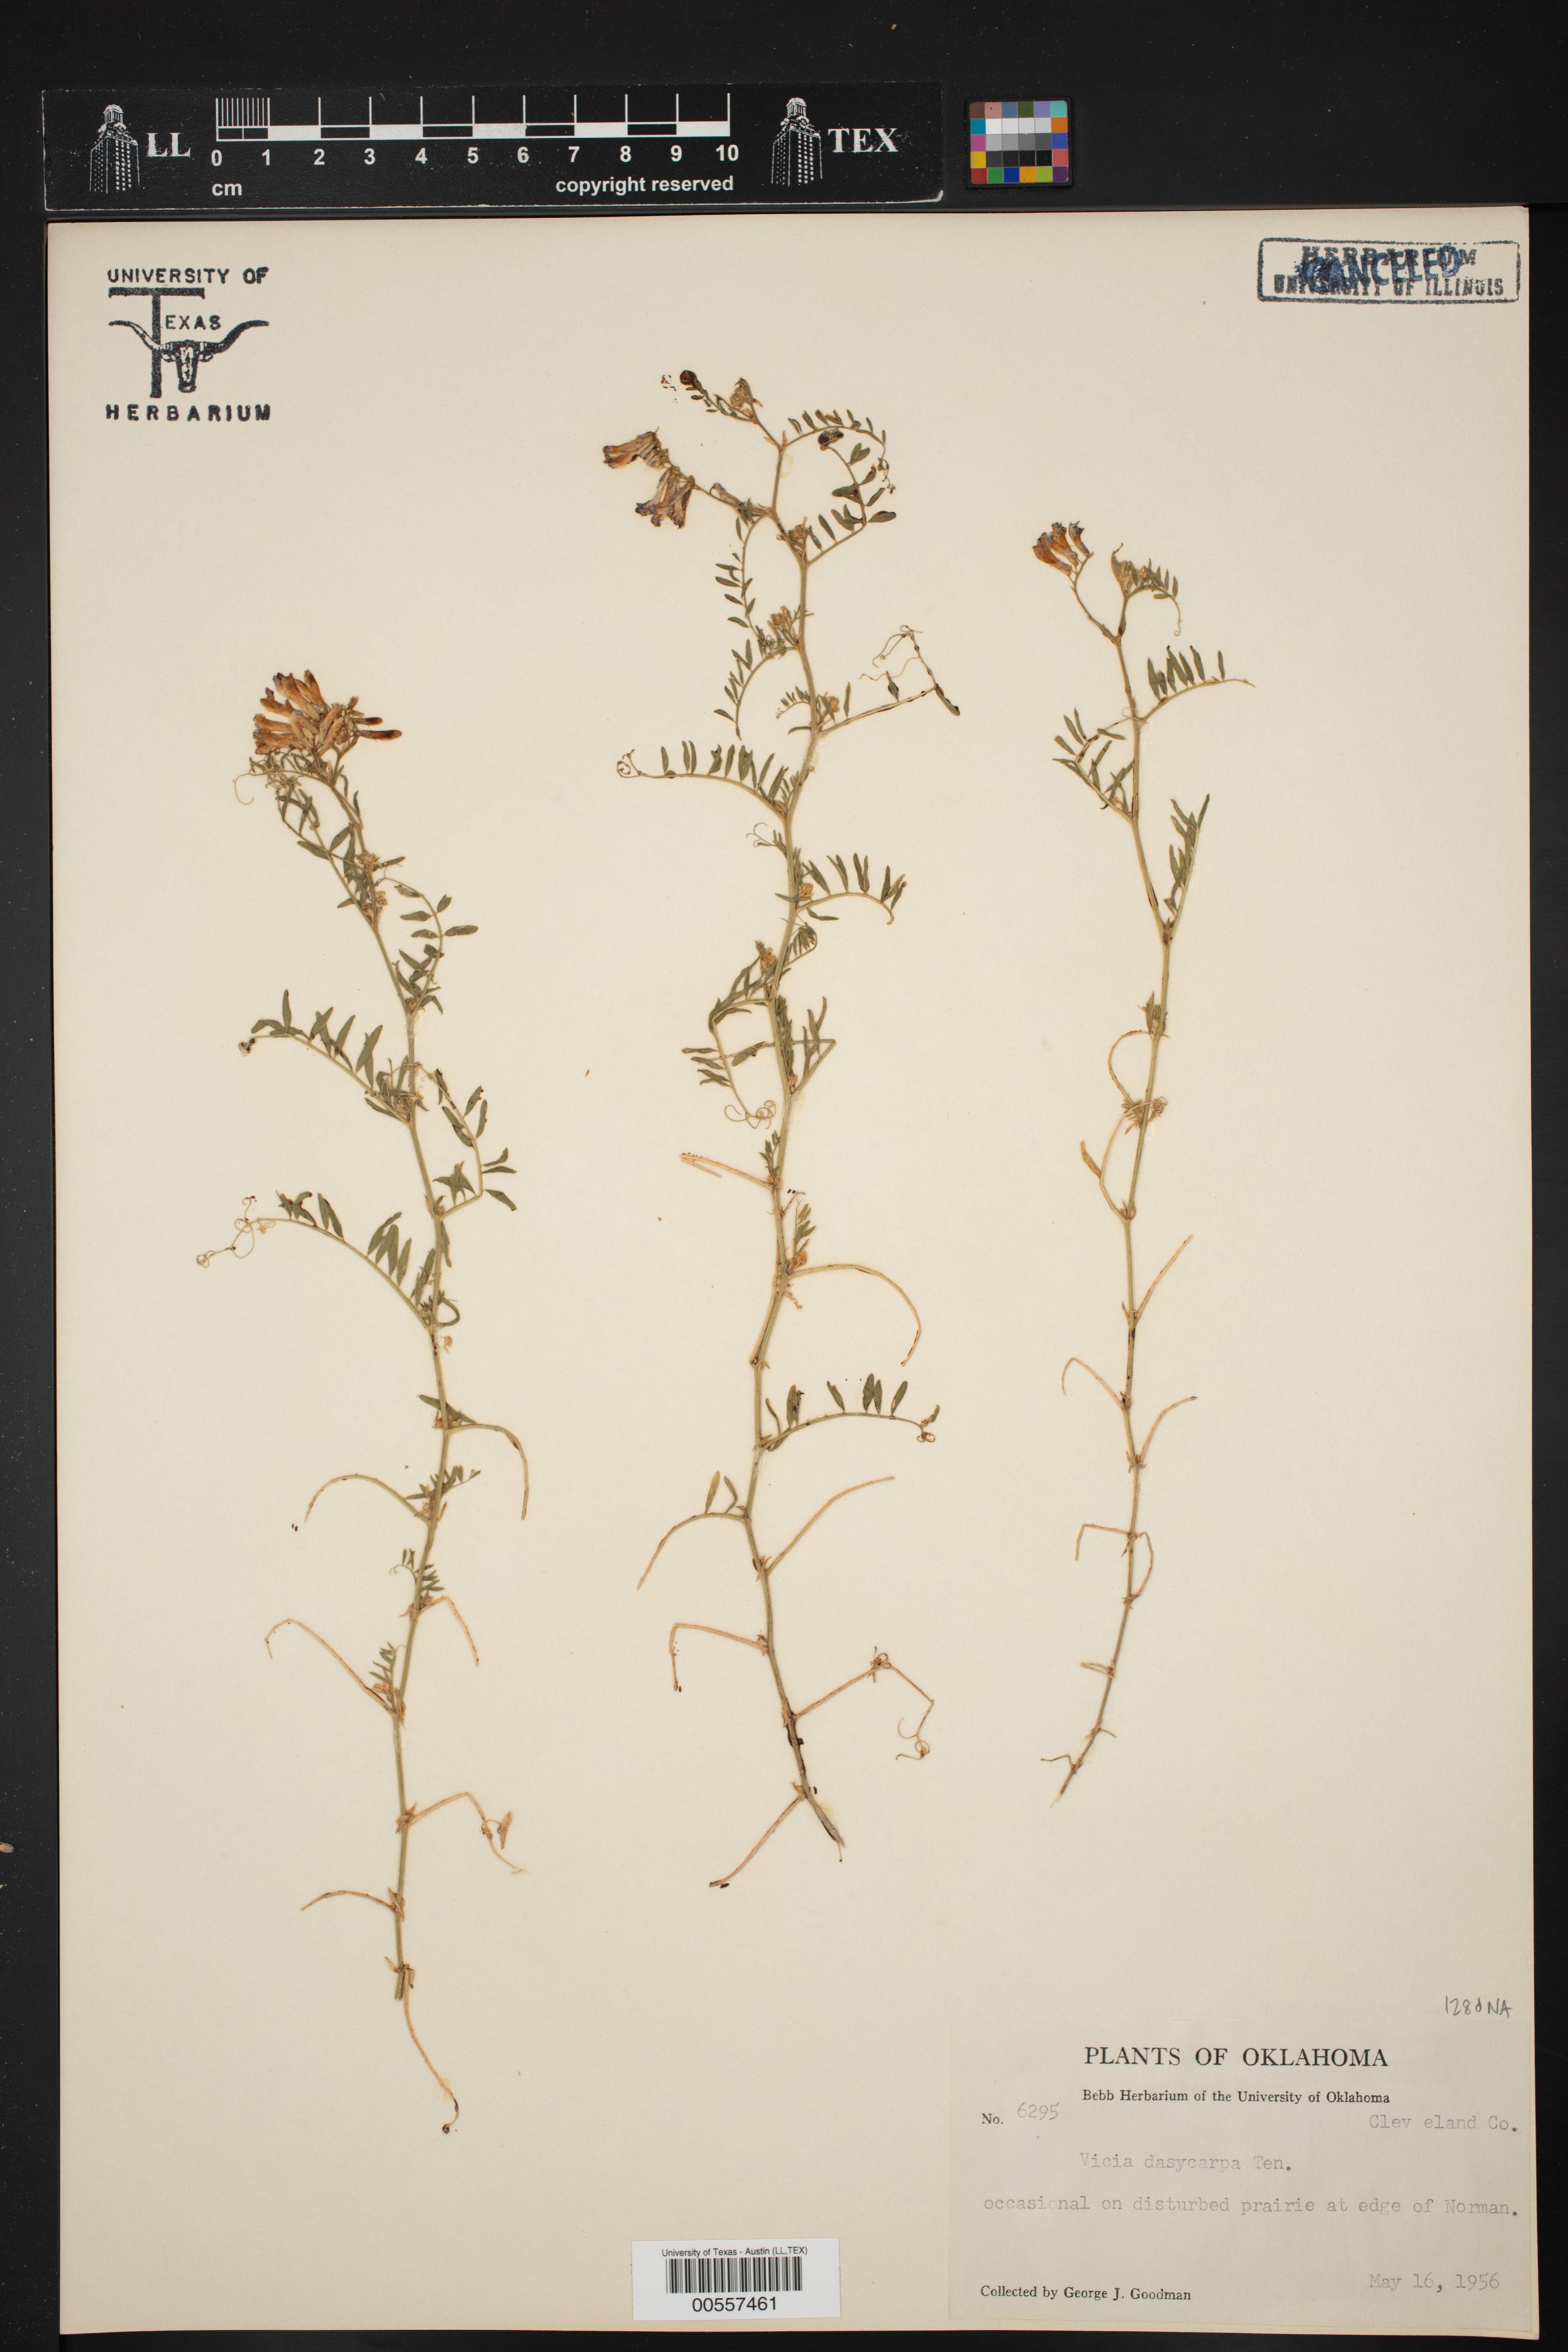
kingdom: Plantae
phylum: Tracheophyta
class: Magnoliopsida
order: Fabales
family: Fabaceae
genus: Vicia
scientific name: Vicia villosa
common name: Fodder vetch
